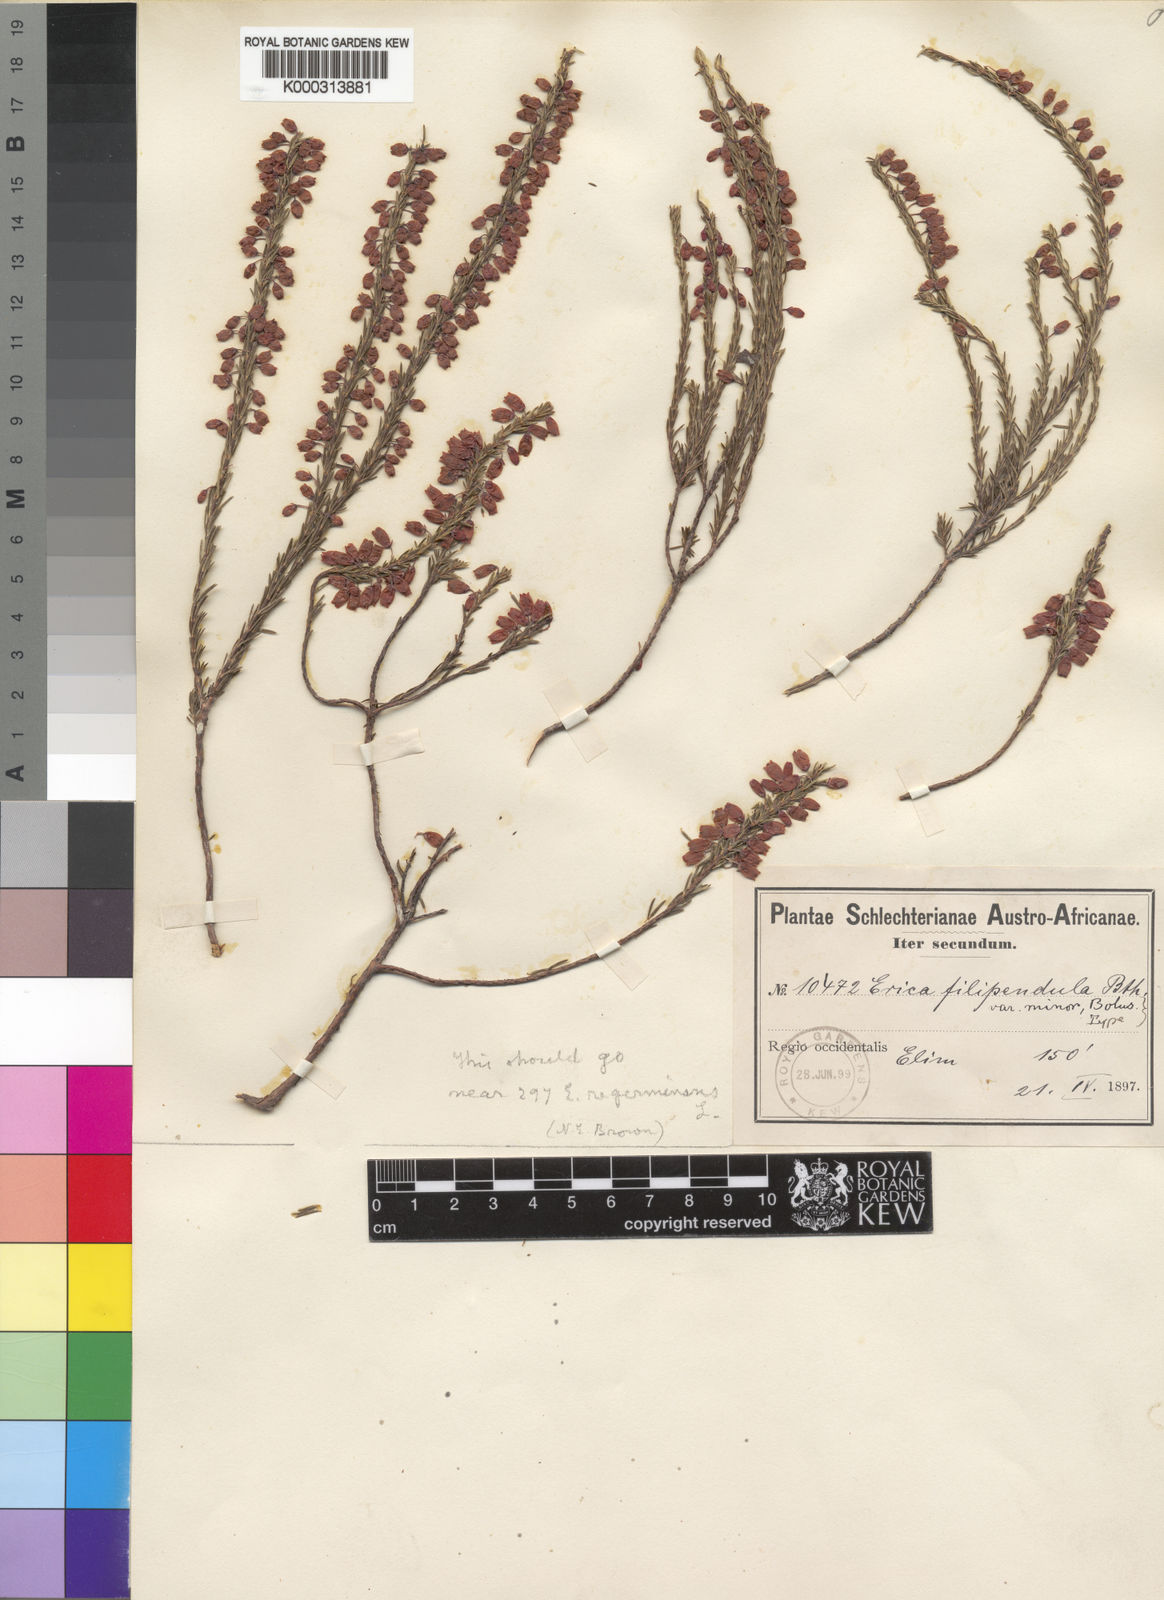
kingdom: Plantae
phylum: Tracheophyta
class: Magnoliopsida
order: Ericales
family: Ericaceae
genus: Erica
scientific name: Erica filipendula
